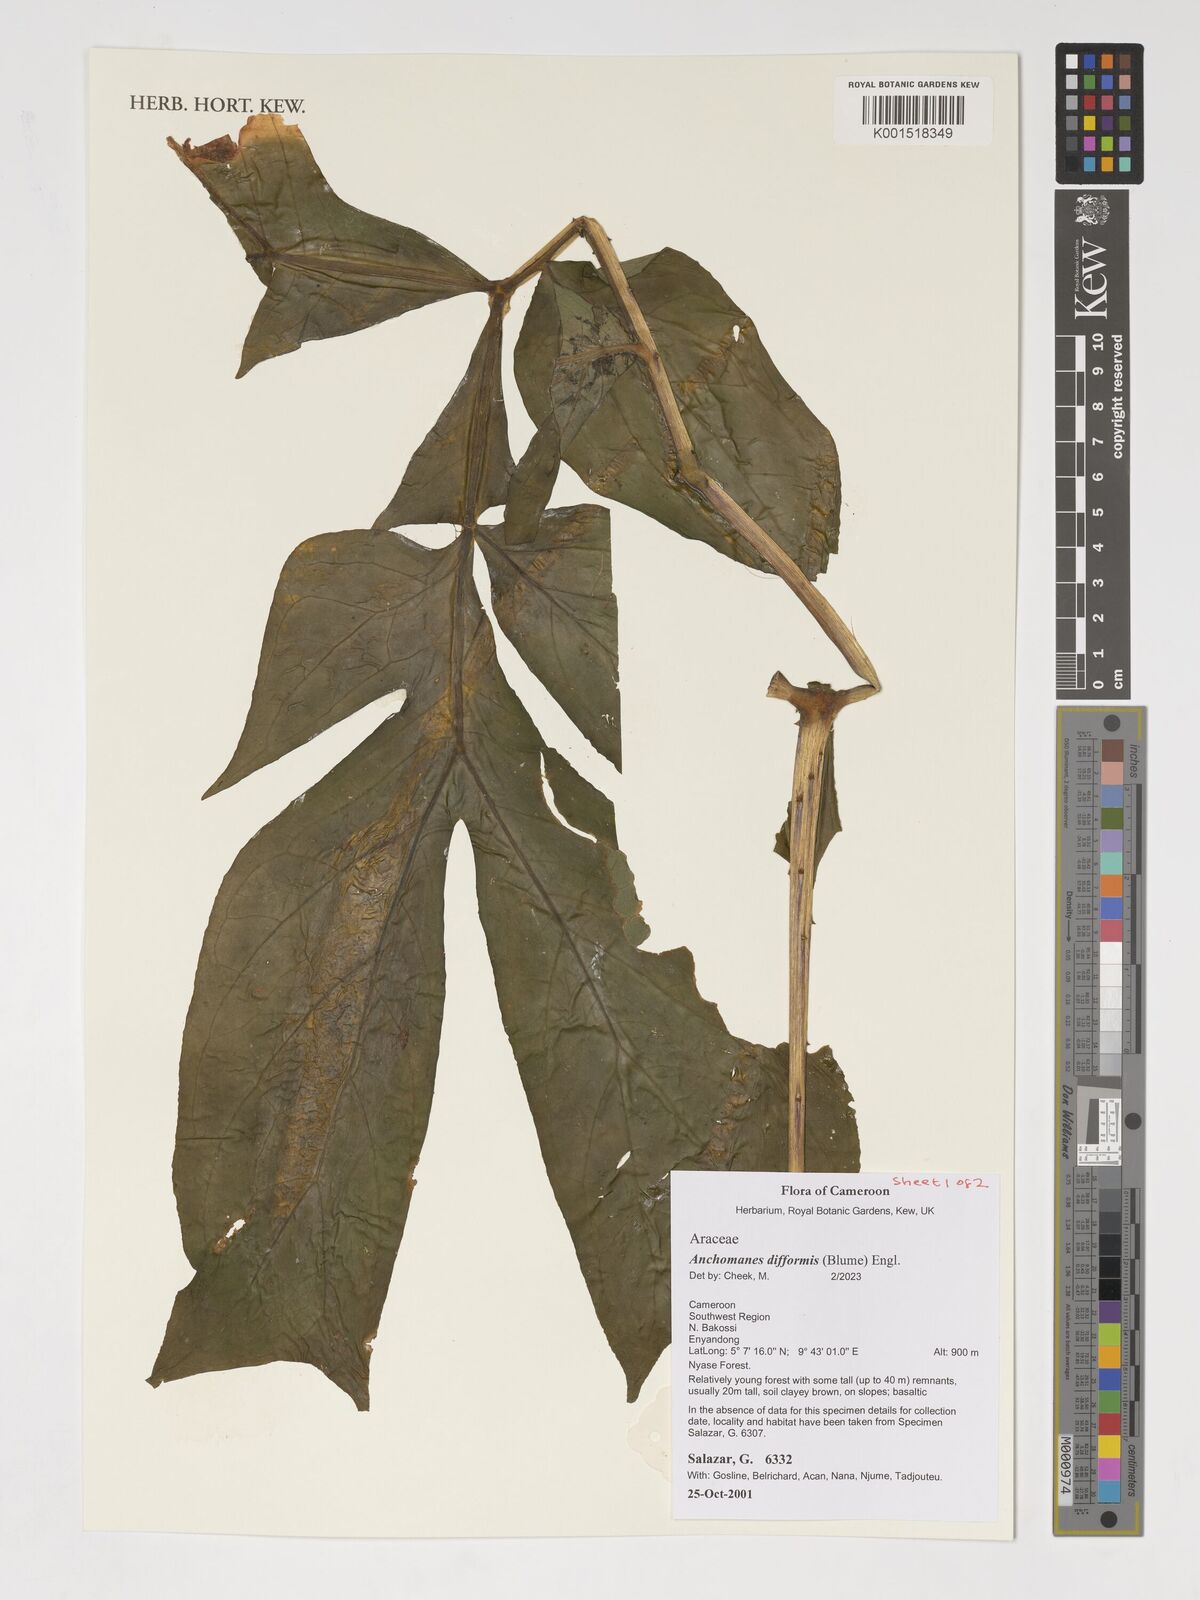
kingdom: Plantae
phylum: Tracheophyta
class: Liliopsida
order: Alismatales
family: Araceae
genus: Anchomanes
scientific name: Anchomanes difformis
